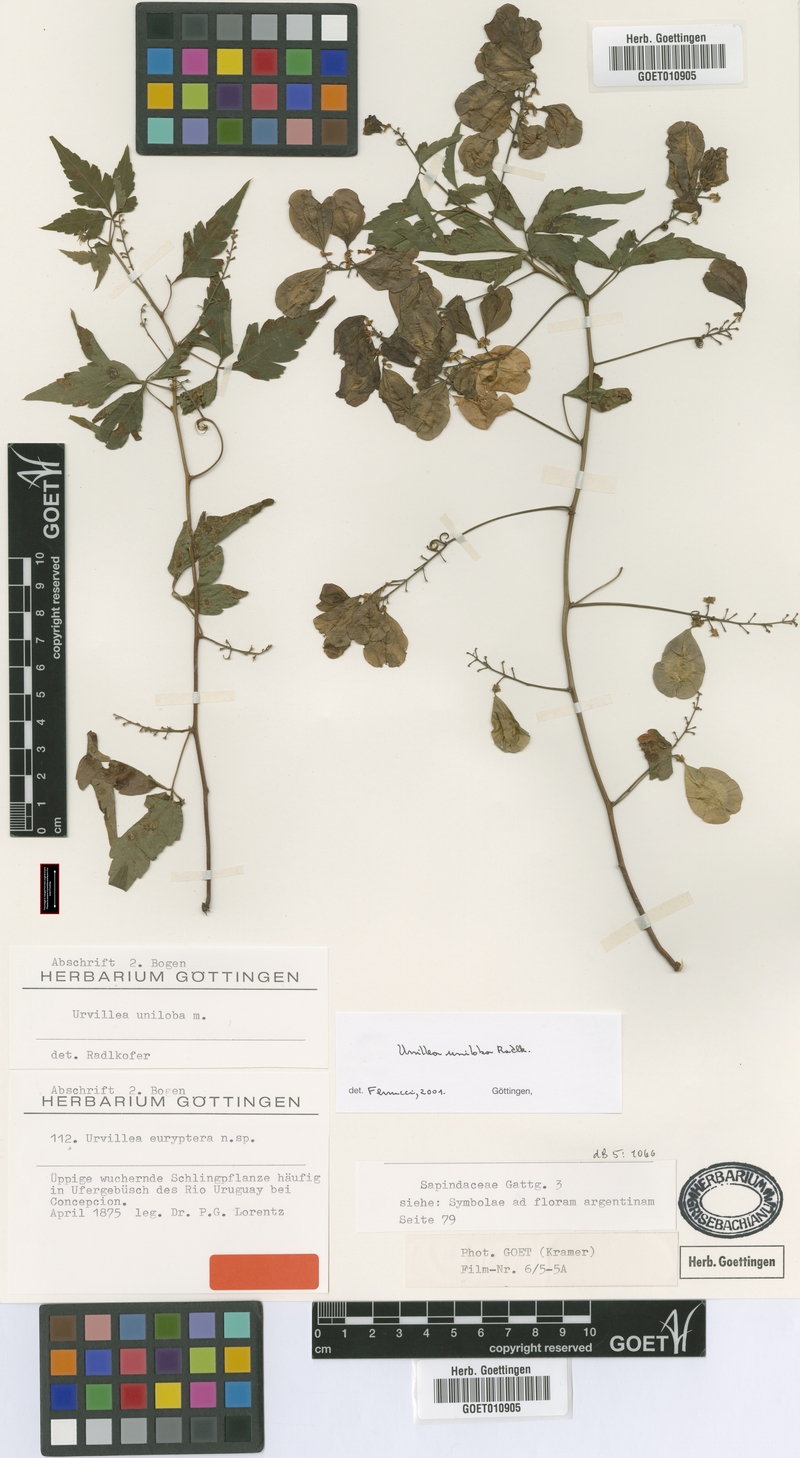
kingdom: Plantae
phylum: Tracheophyta
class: Magnoliopsida
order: Sapindales
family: Sapindaceae
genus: Urvillea
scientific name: Urvillea uniloba
